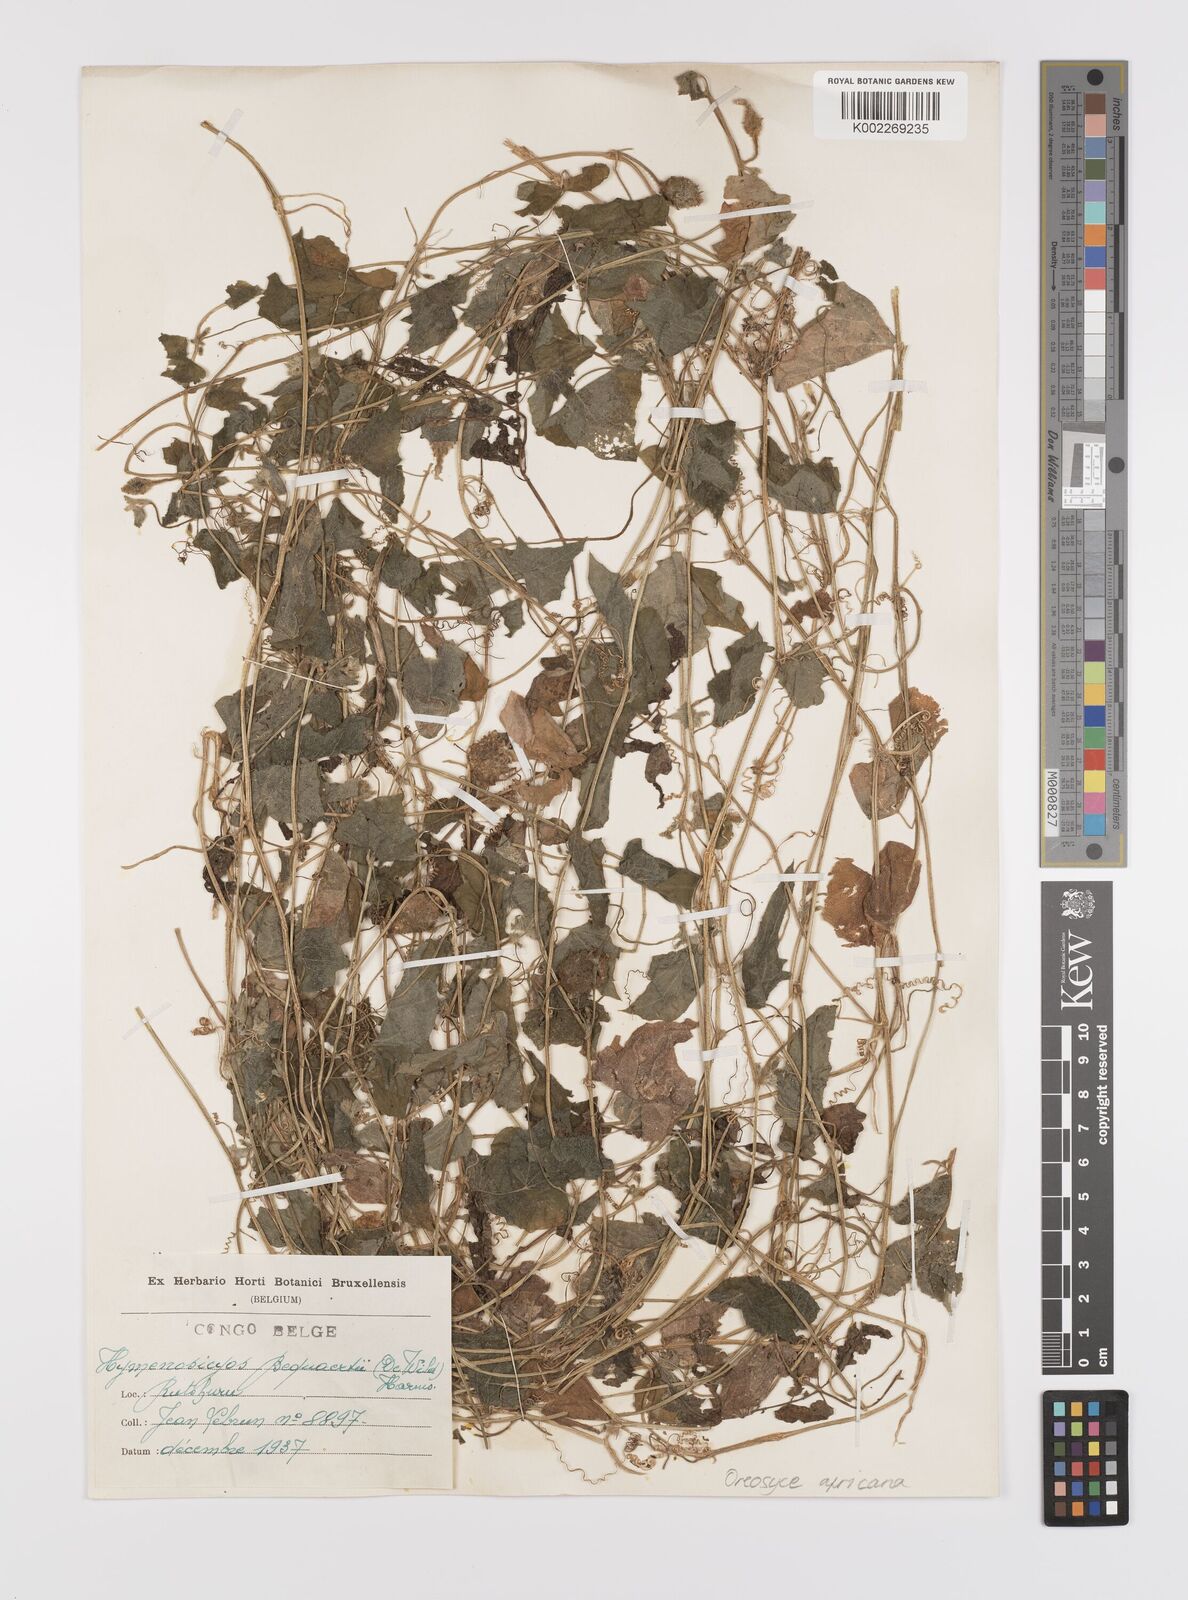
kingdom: Plantae
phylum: Tracheophyta
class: Magnoliopsida
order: Cucurbitales
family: Cucurbitaceae
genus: Cucumis
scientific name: Cucumis oreosyce
